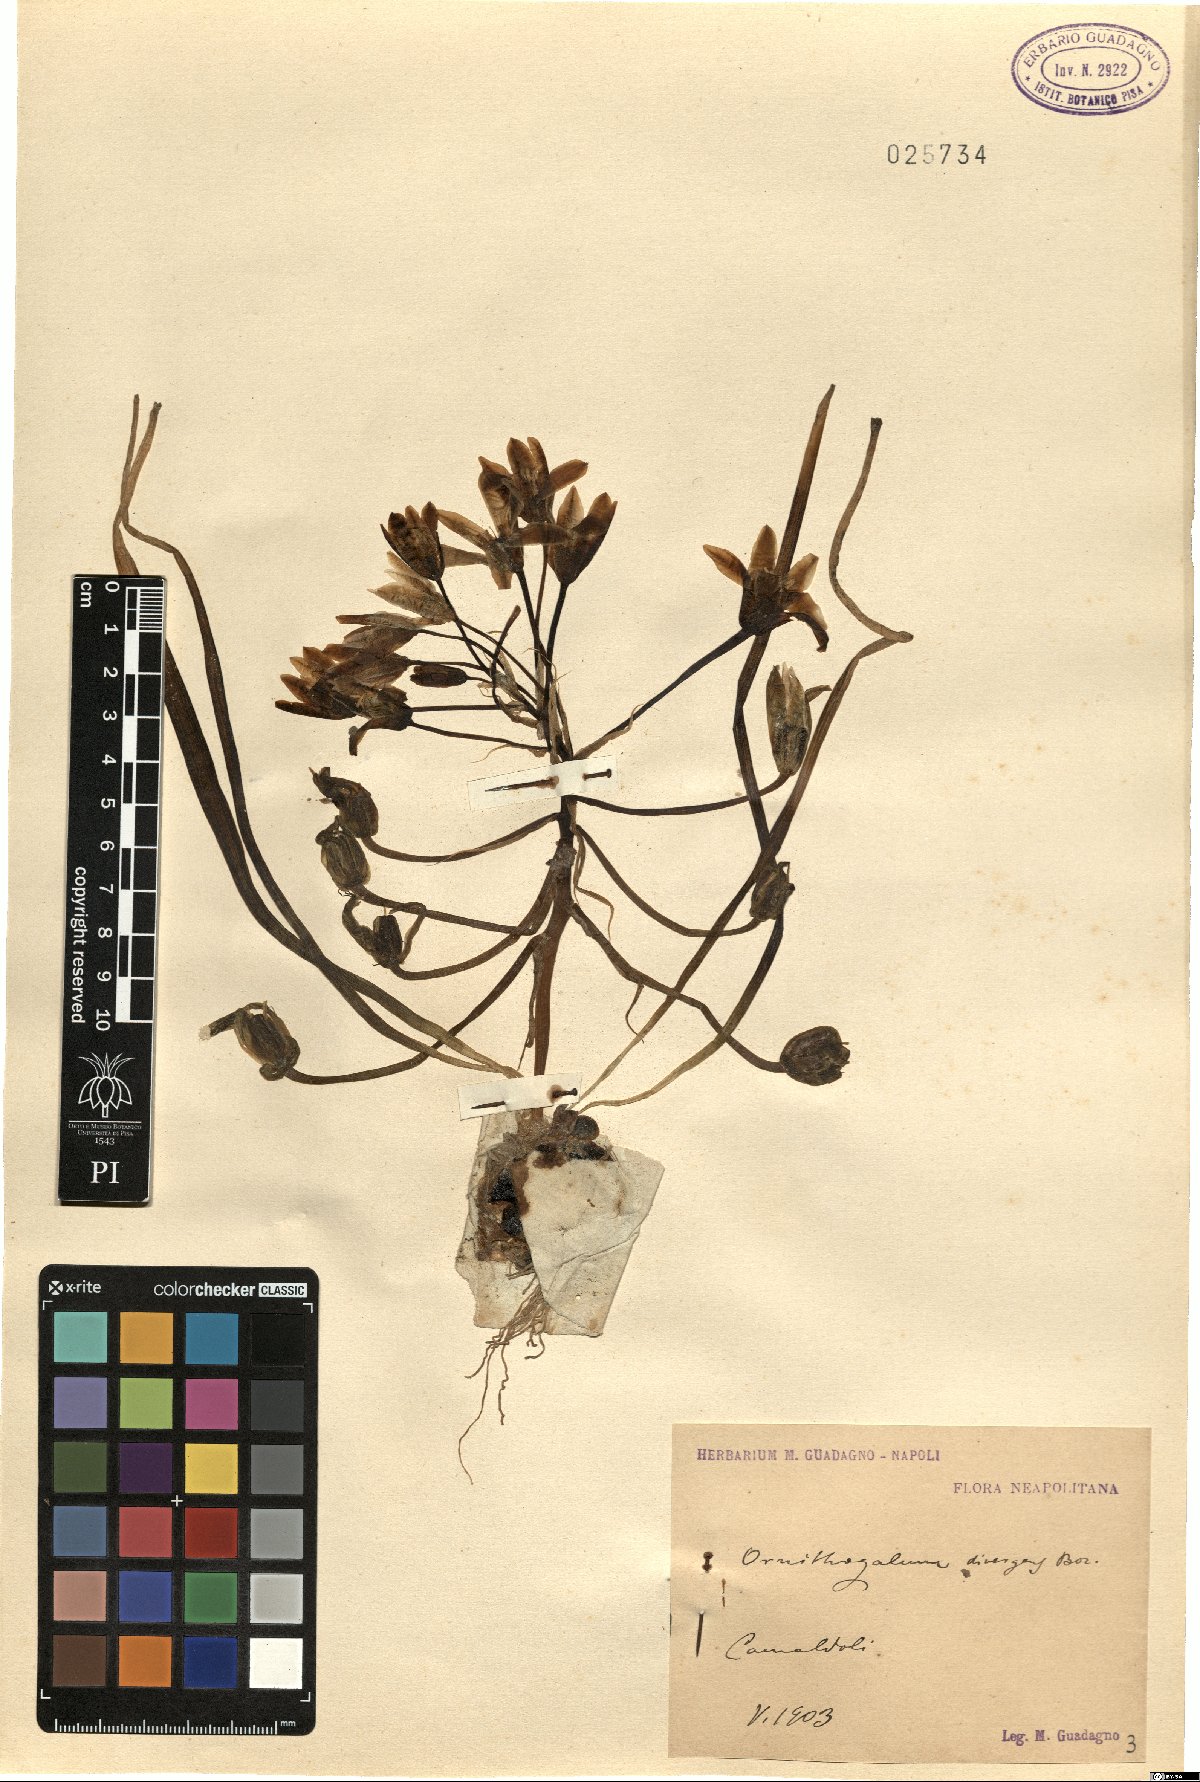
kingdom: Plantae
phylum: Tracheophyta
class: Liliopsida
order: Asparagales
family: Asparagaceae
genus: Ornithogalum
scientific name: Ornithogalum divergens
